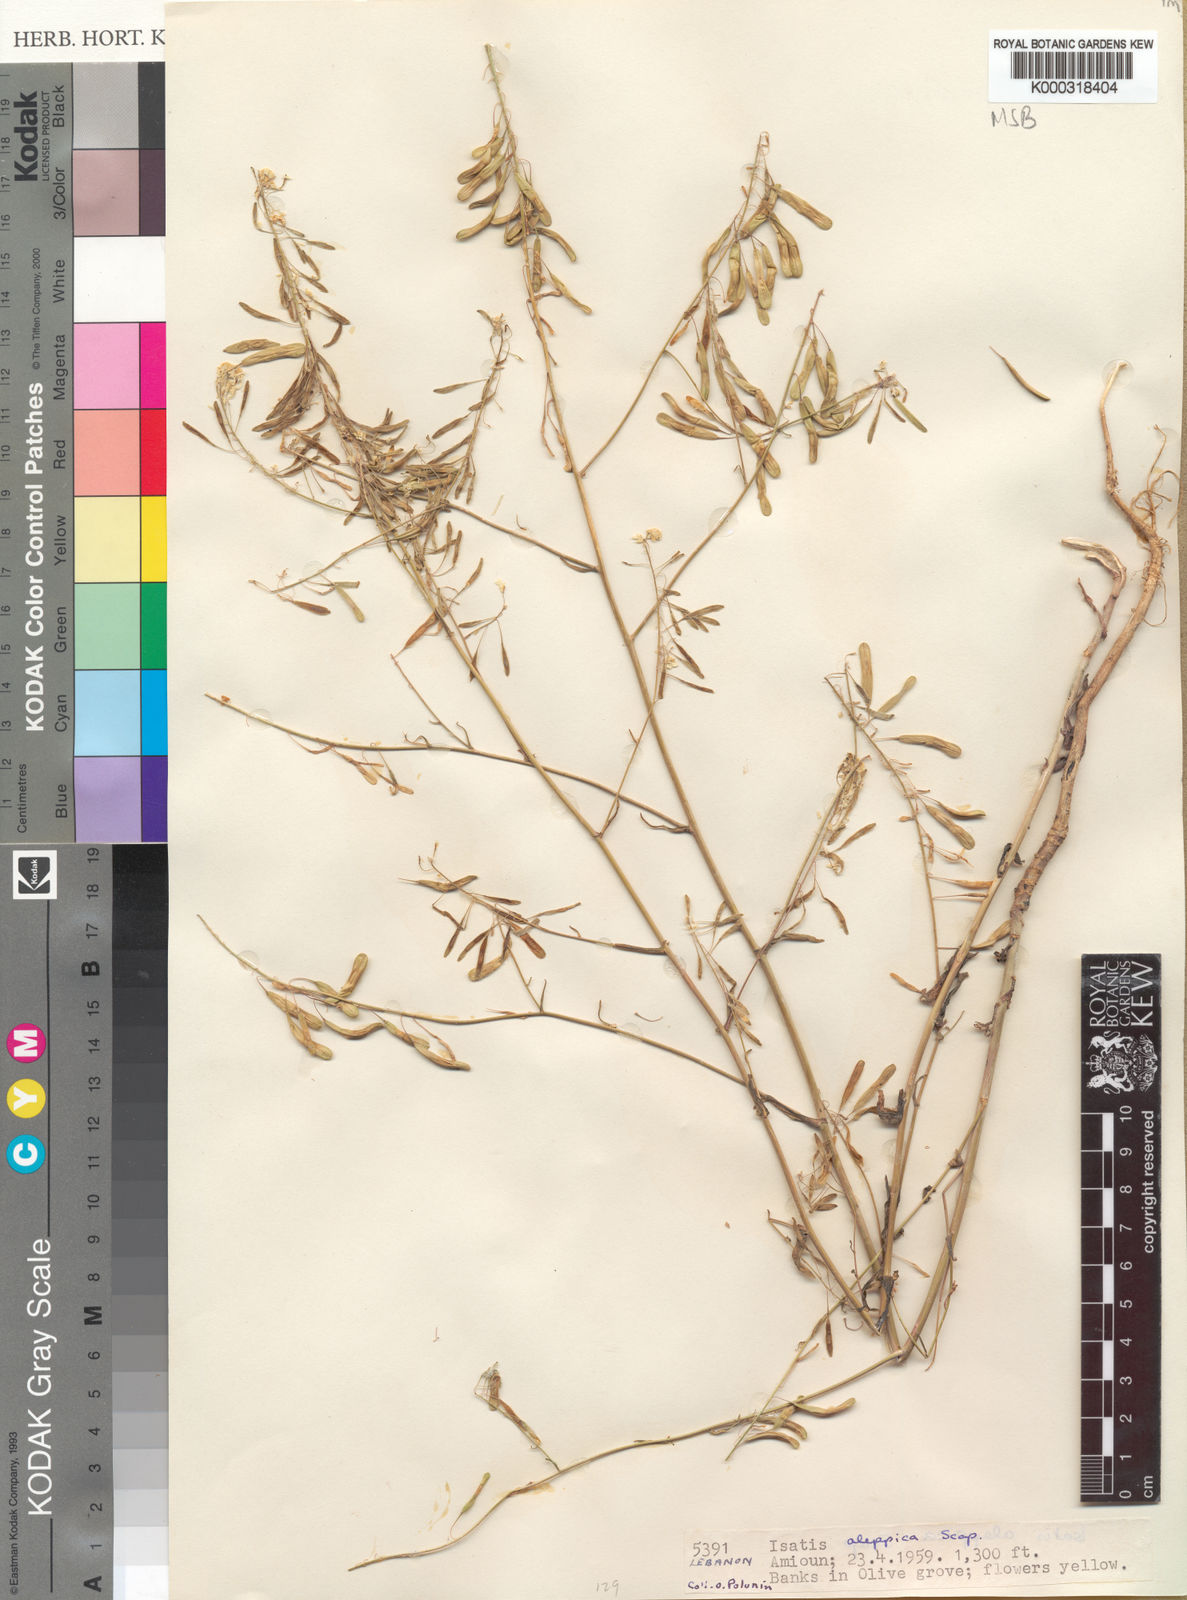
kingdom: Plantae
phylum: Tracheophyta
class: Magnoliopsida
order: Brassicales
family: Brassicaceae
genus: Lepidium
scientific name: Lepidium draba
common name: Hoary cress
